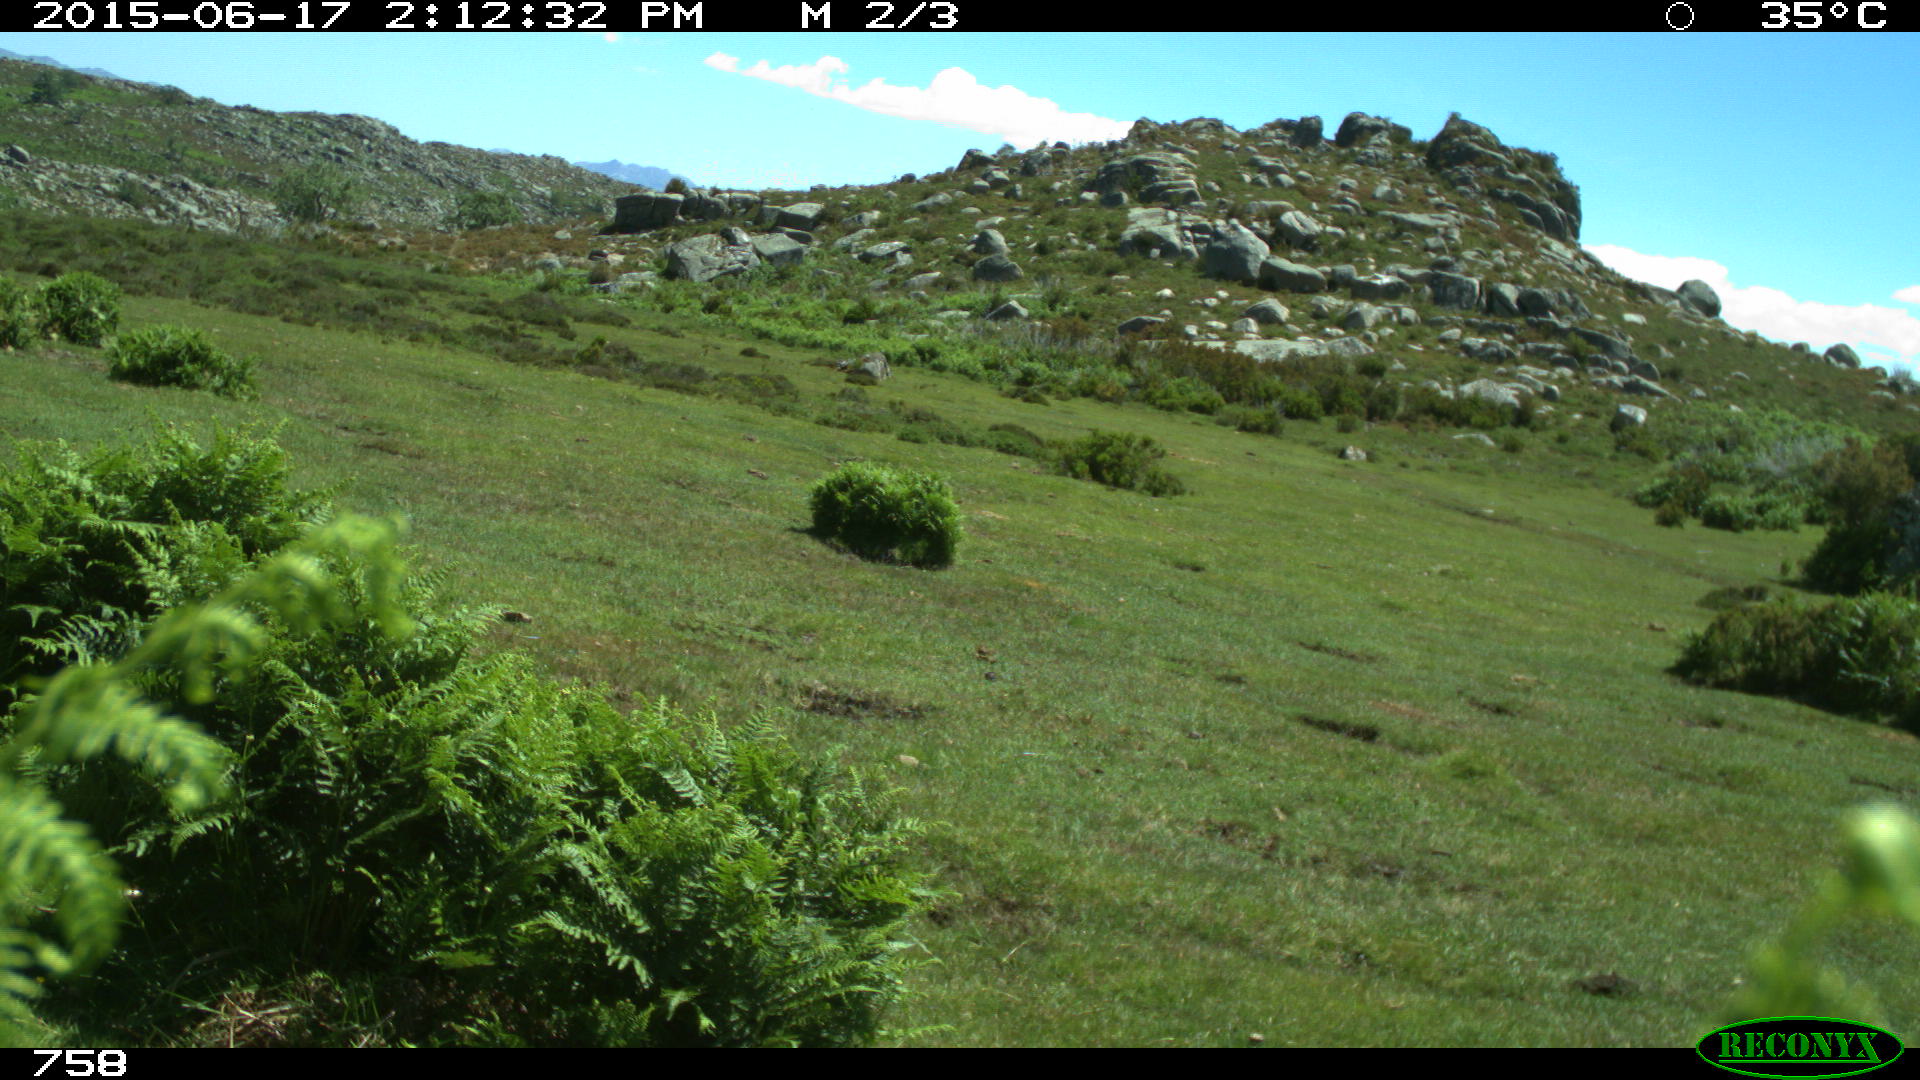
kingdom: Animalia
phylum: Chordata
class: Mammalia
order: Artiodactyla
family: Bovidae
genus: Bos
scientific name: Bos taurus
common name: Domesticated cattle
